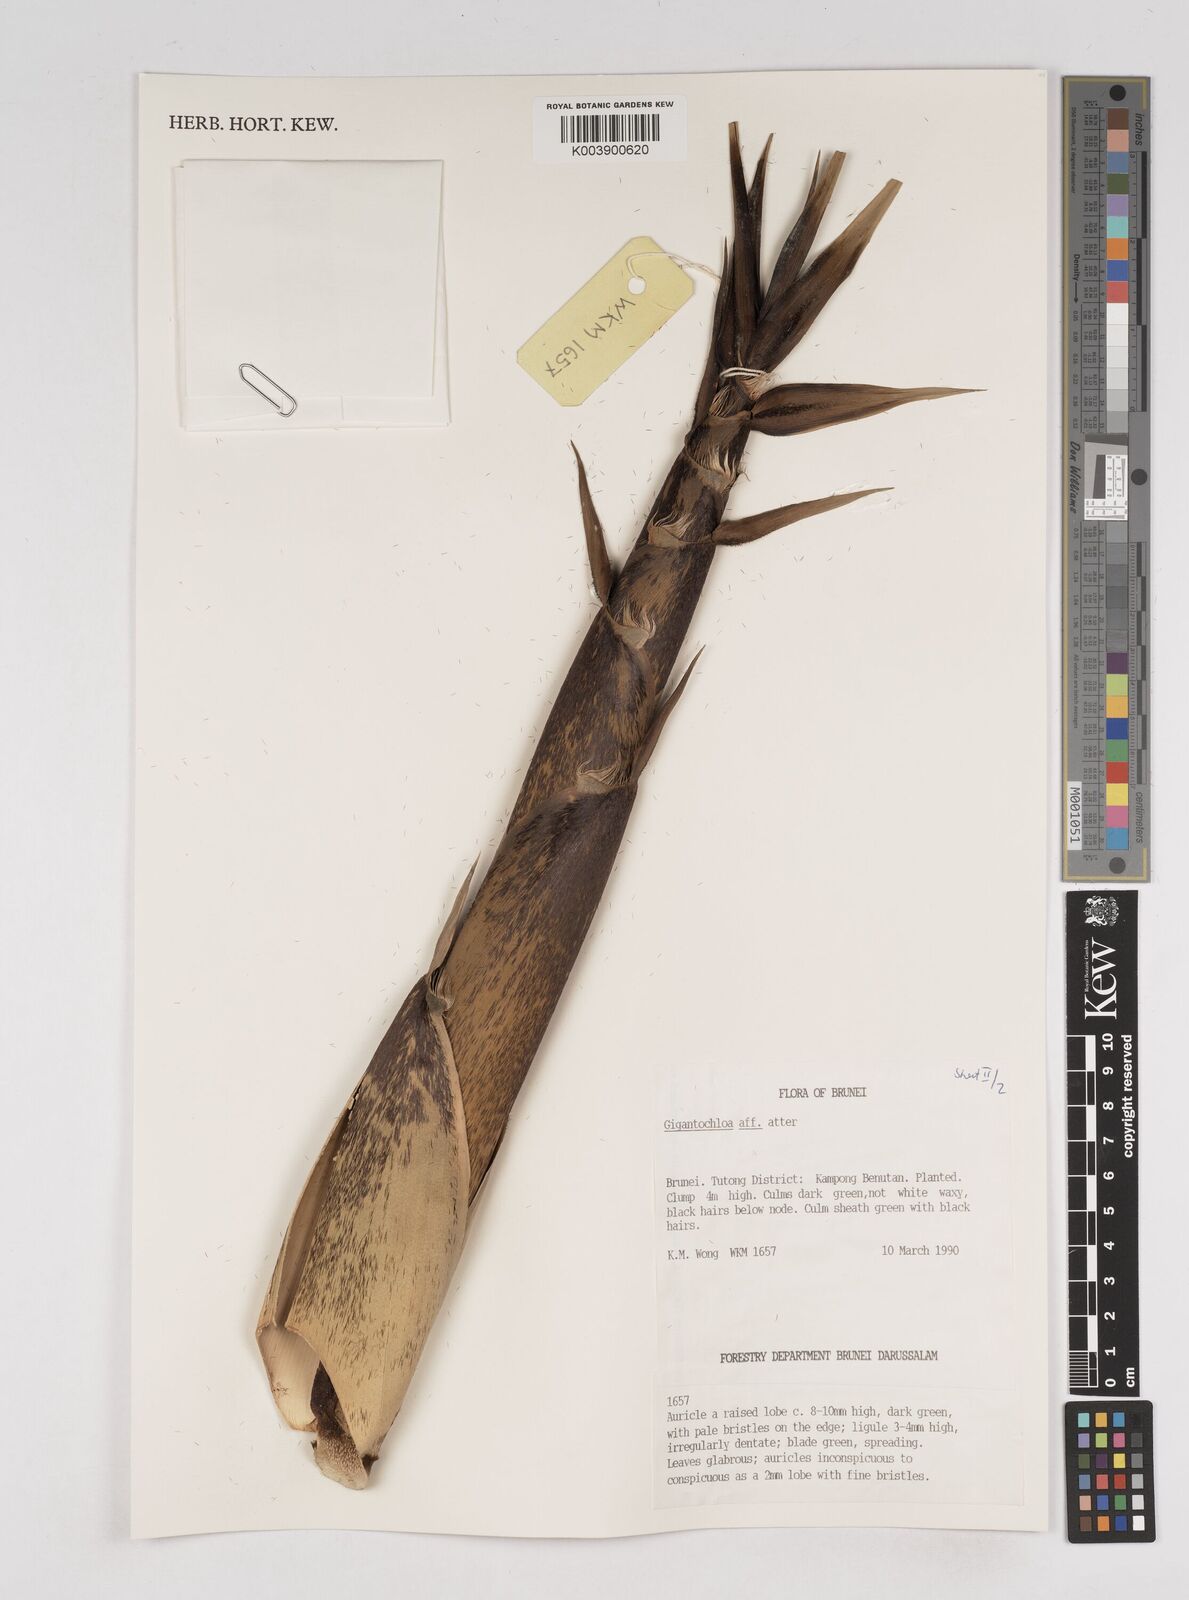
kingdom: Plantae
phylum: Tracheophyta
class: Liliopsida
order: Poales
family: Poaceae
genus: Gigantochloa
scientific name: Gigantochloa atter
